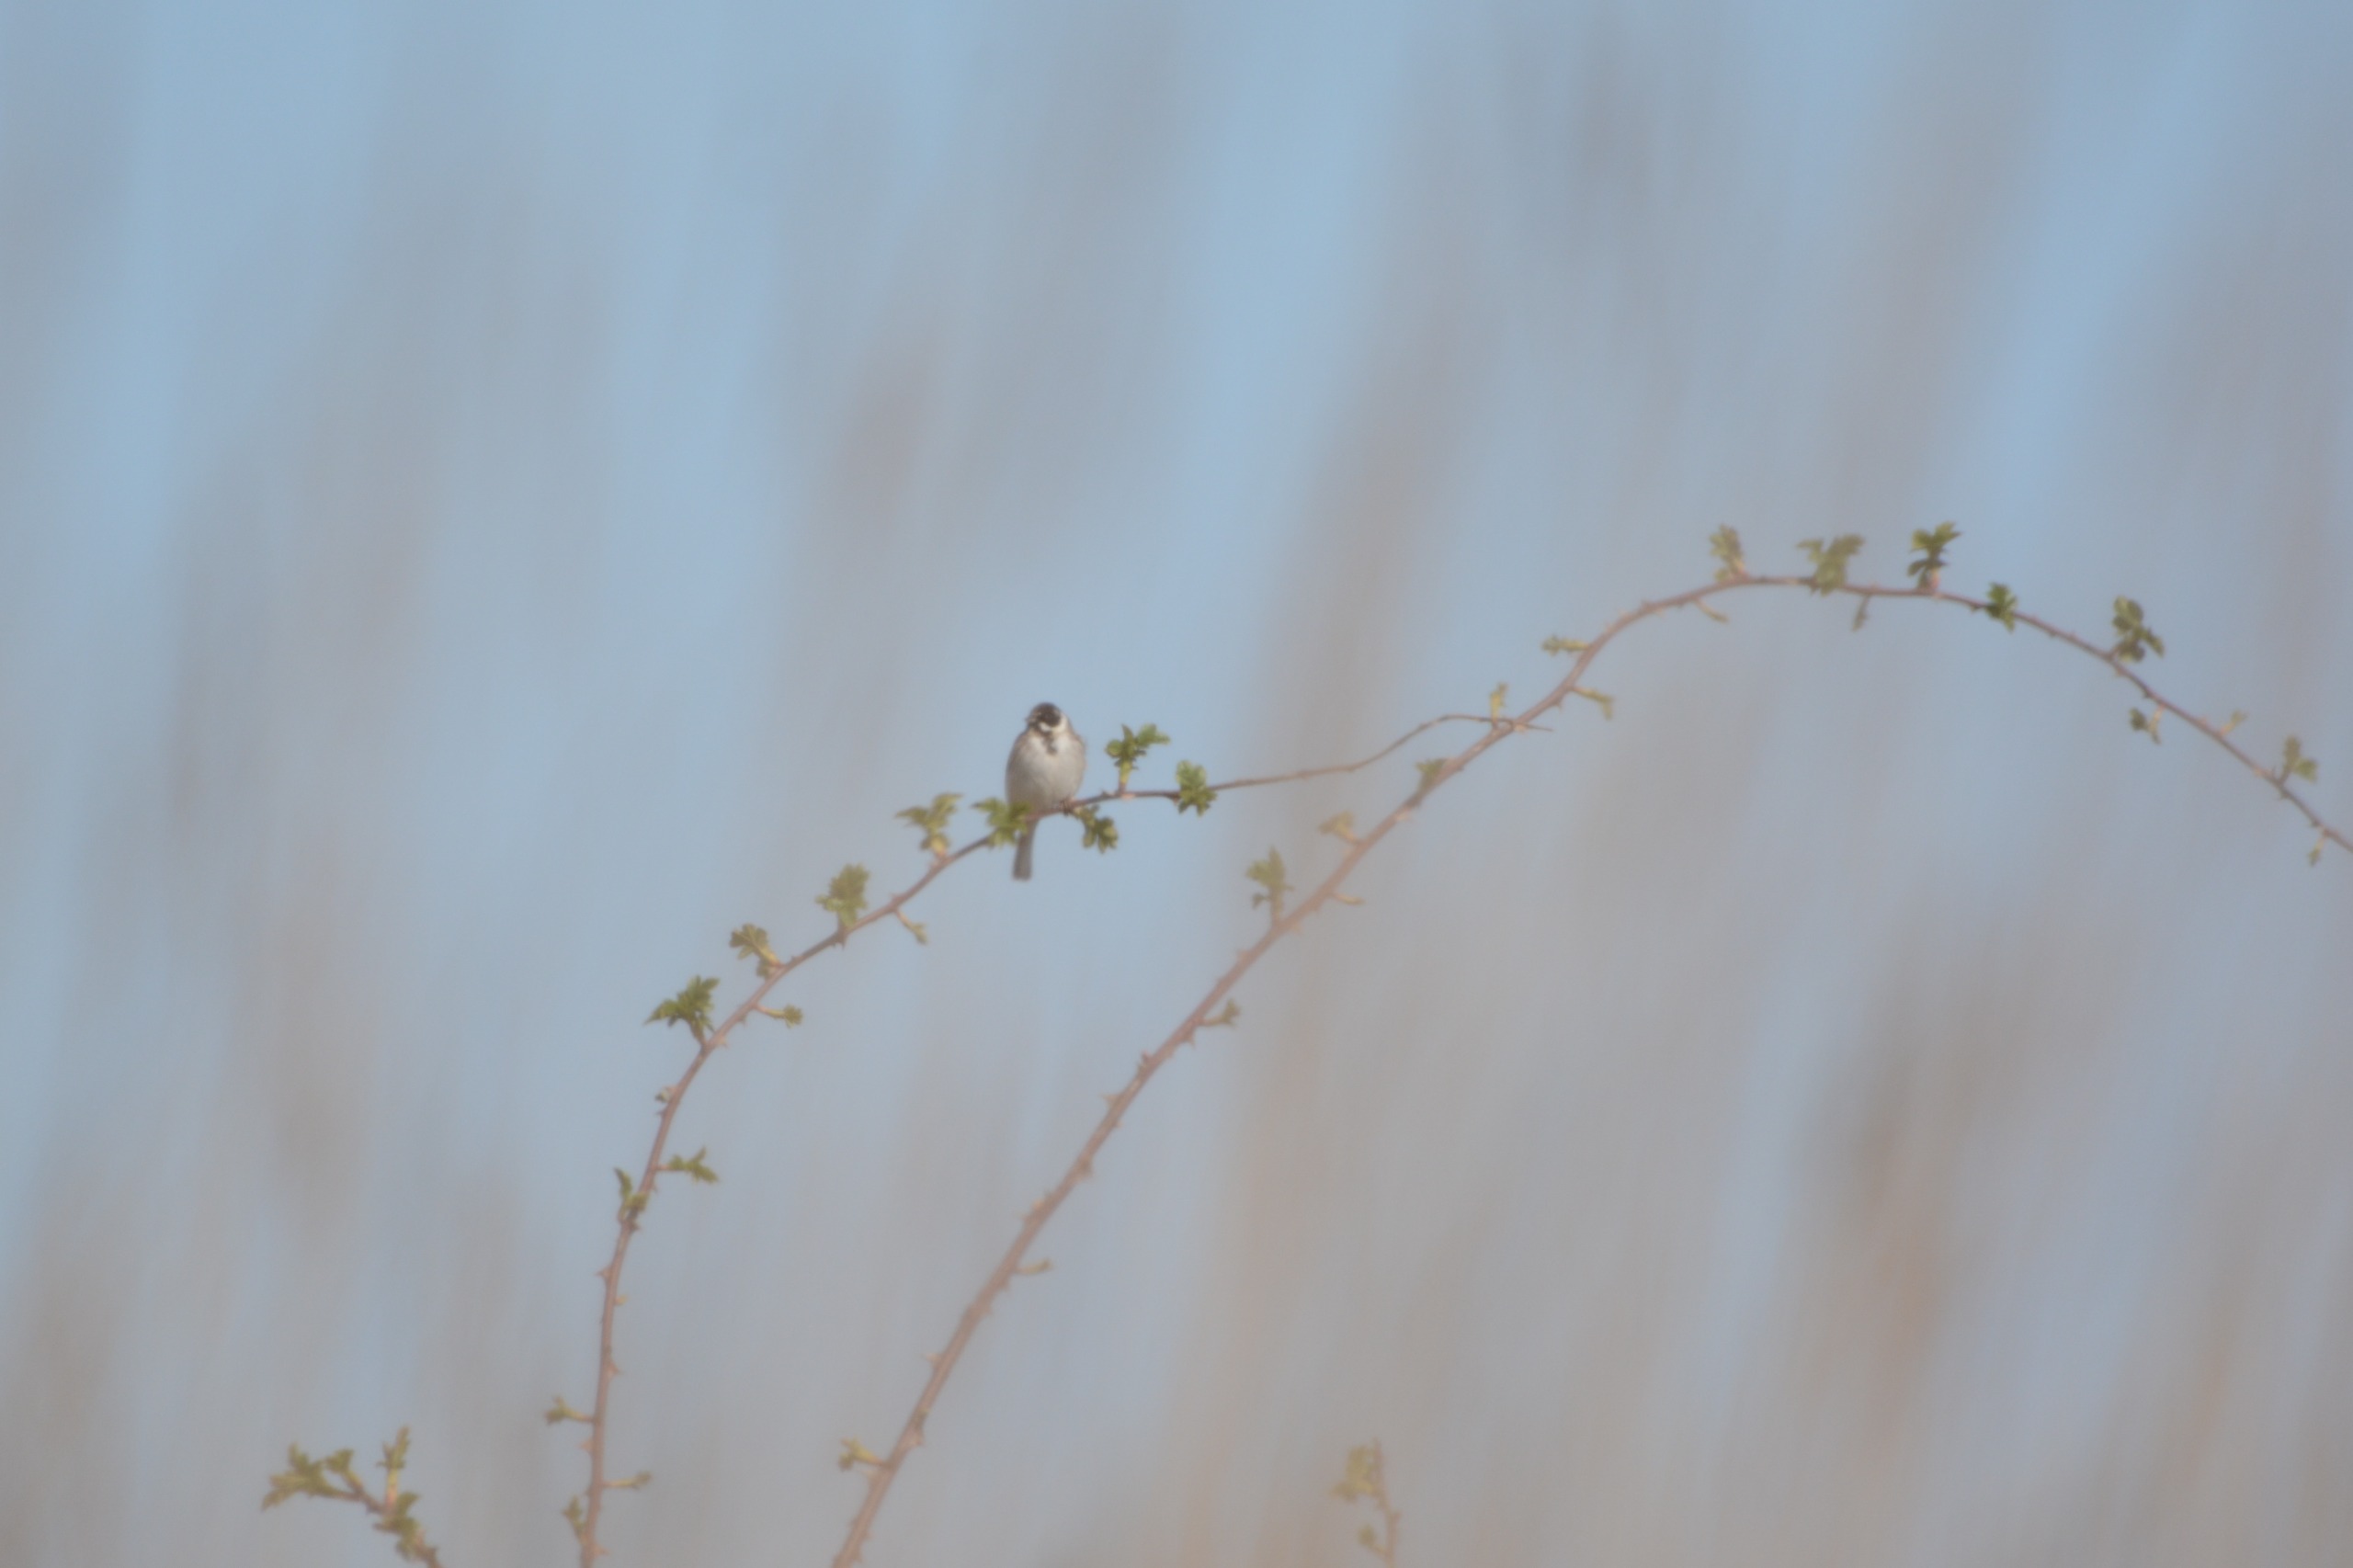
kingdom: Animalia
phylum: Chordata
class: Aves
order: Passeriformes
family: Emberizidae
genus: Emberiza
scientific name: Emberiza schoeniclus
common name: Rørspurv
